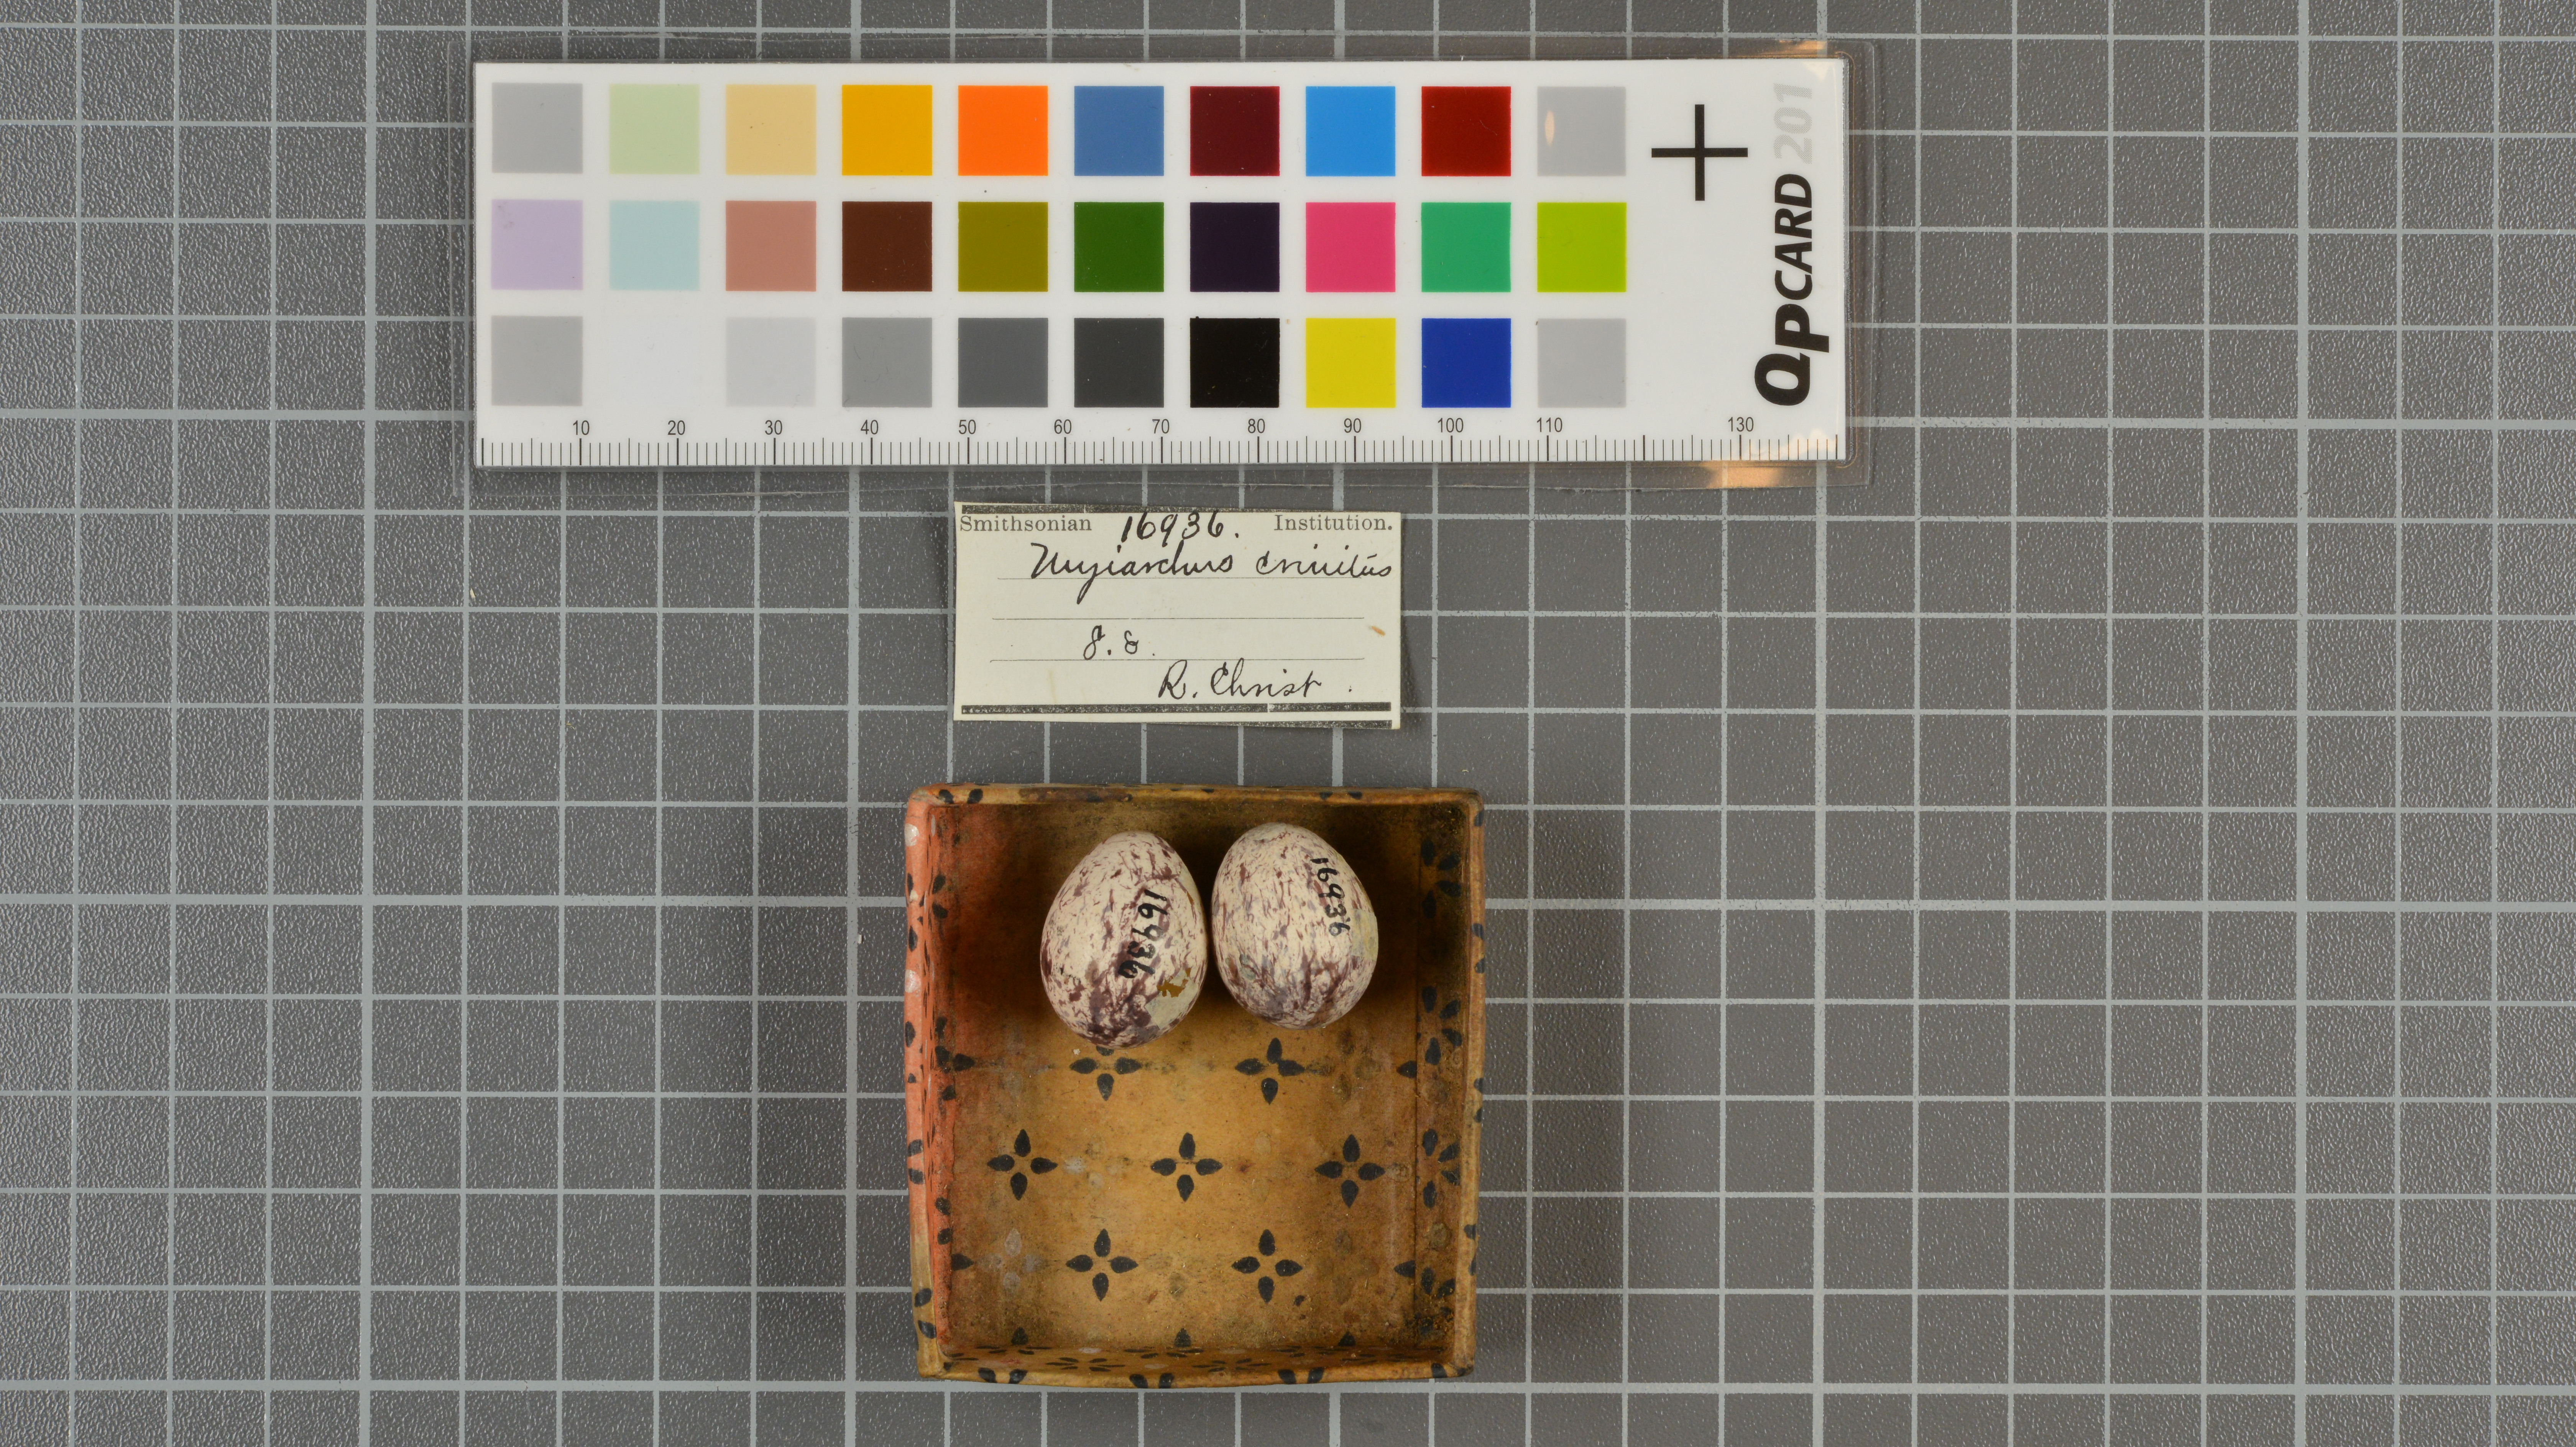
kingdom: Animalia
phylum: Chordata
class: Aves
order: Passeriformes
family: Tyrannidae
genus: Myiarchus
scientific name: Myiarchus crinitus
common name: Great crested flycatcher
